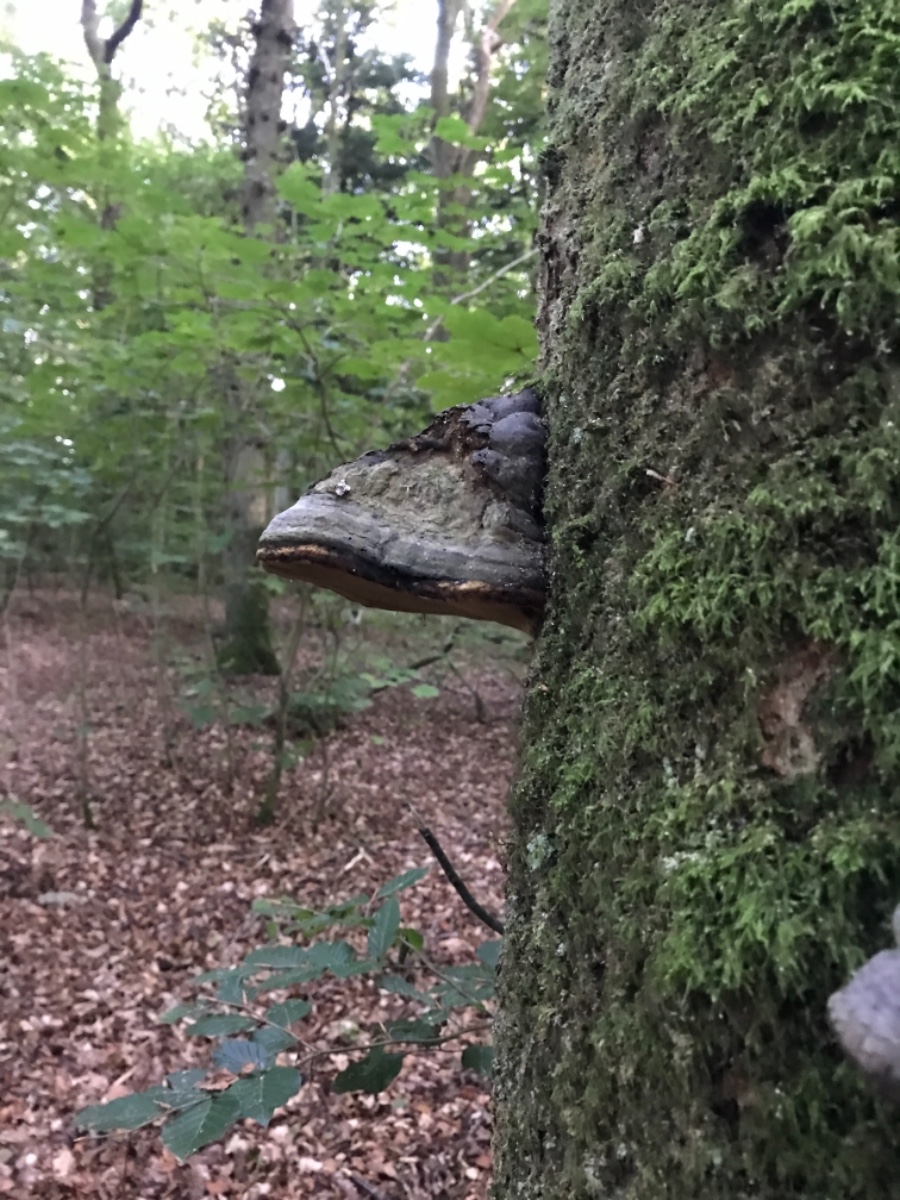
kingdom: Fungi
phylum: Basidiomycota
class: Agaricomycetes
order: Polyporales
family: Polyporaceae
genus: Fomes
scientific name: Fomes fomentarius
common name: tøndersvamp
